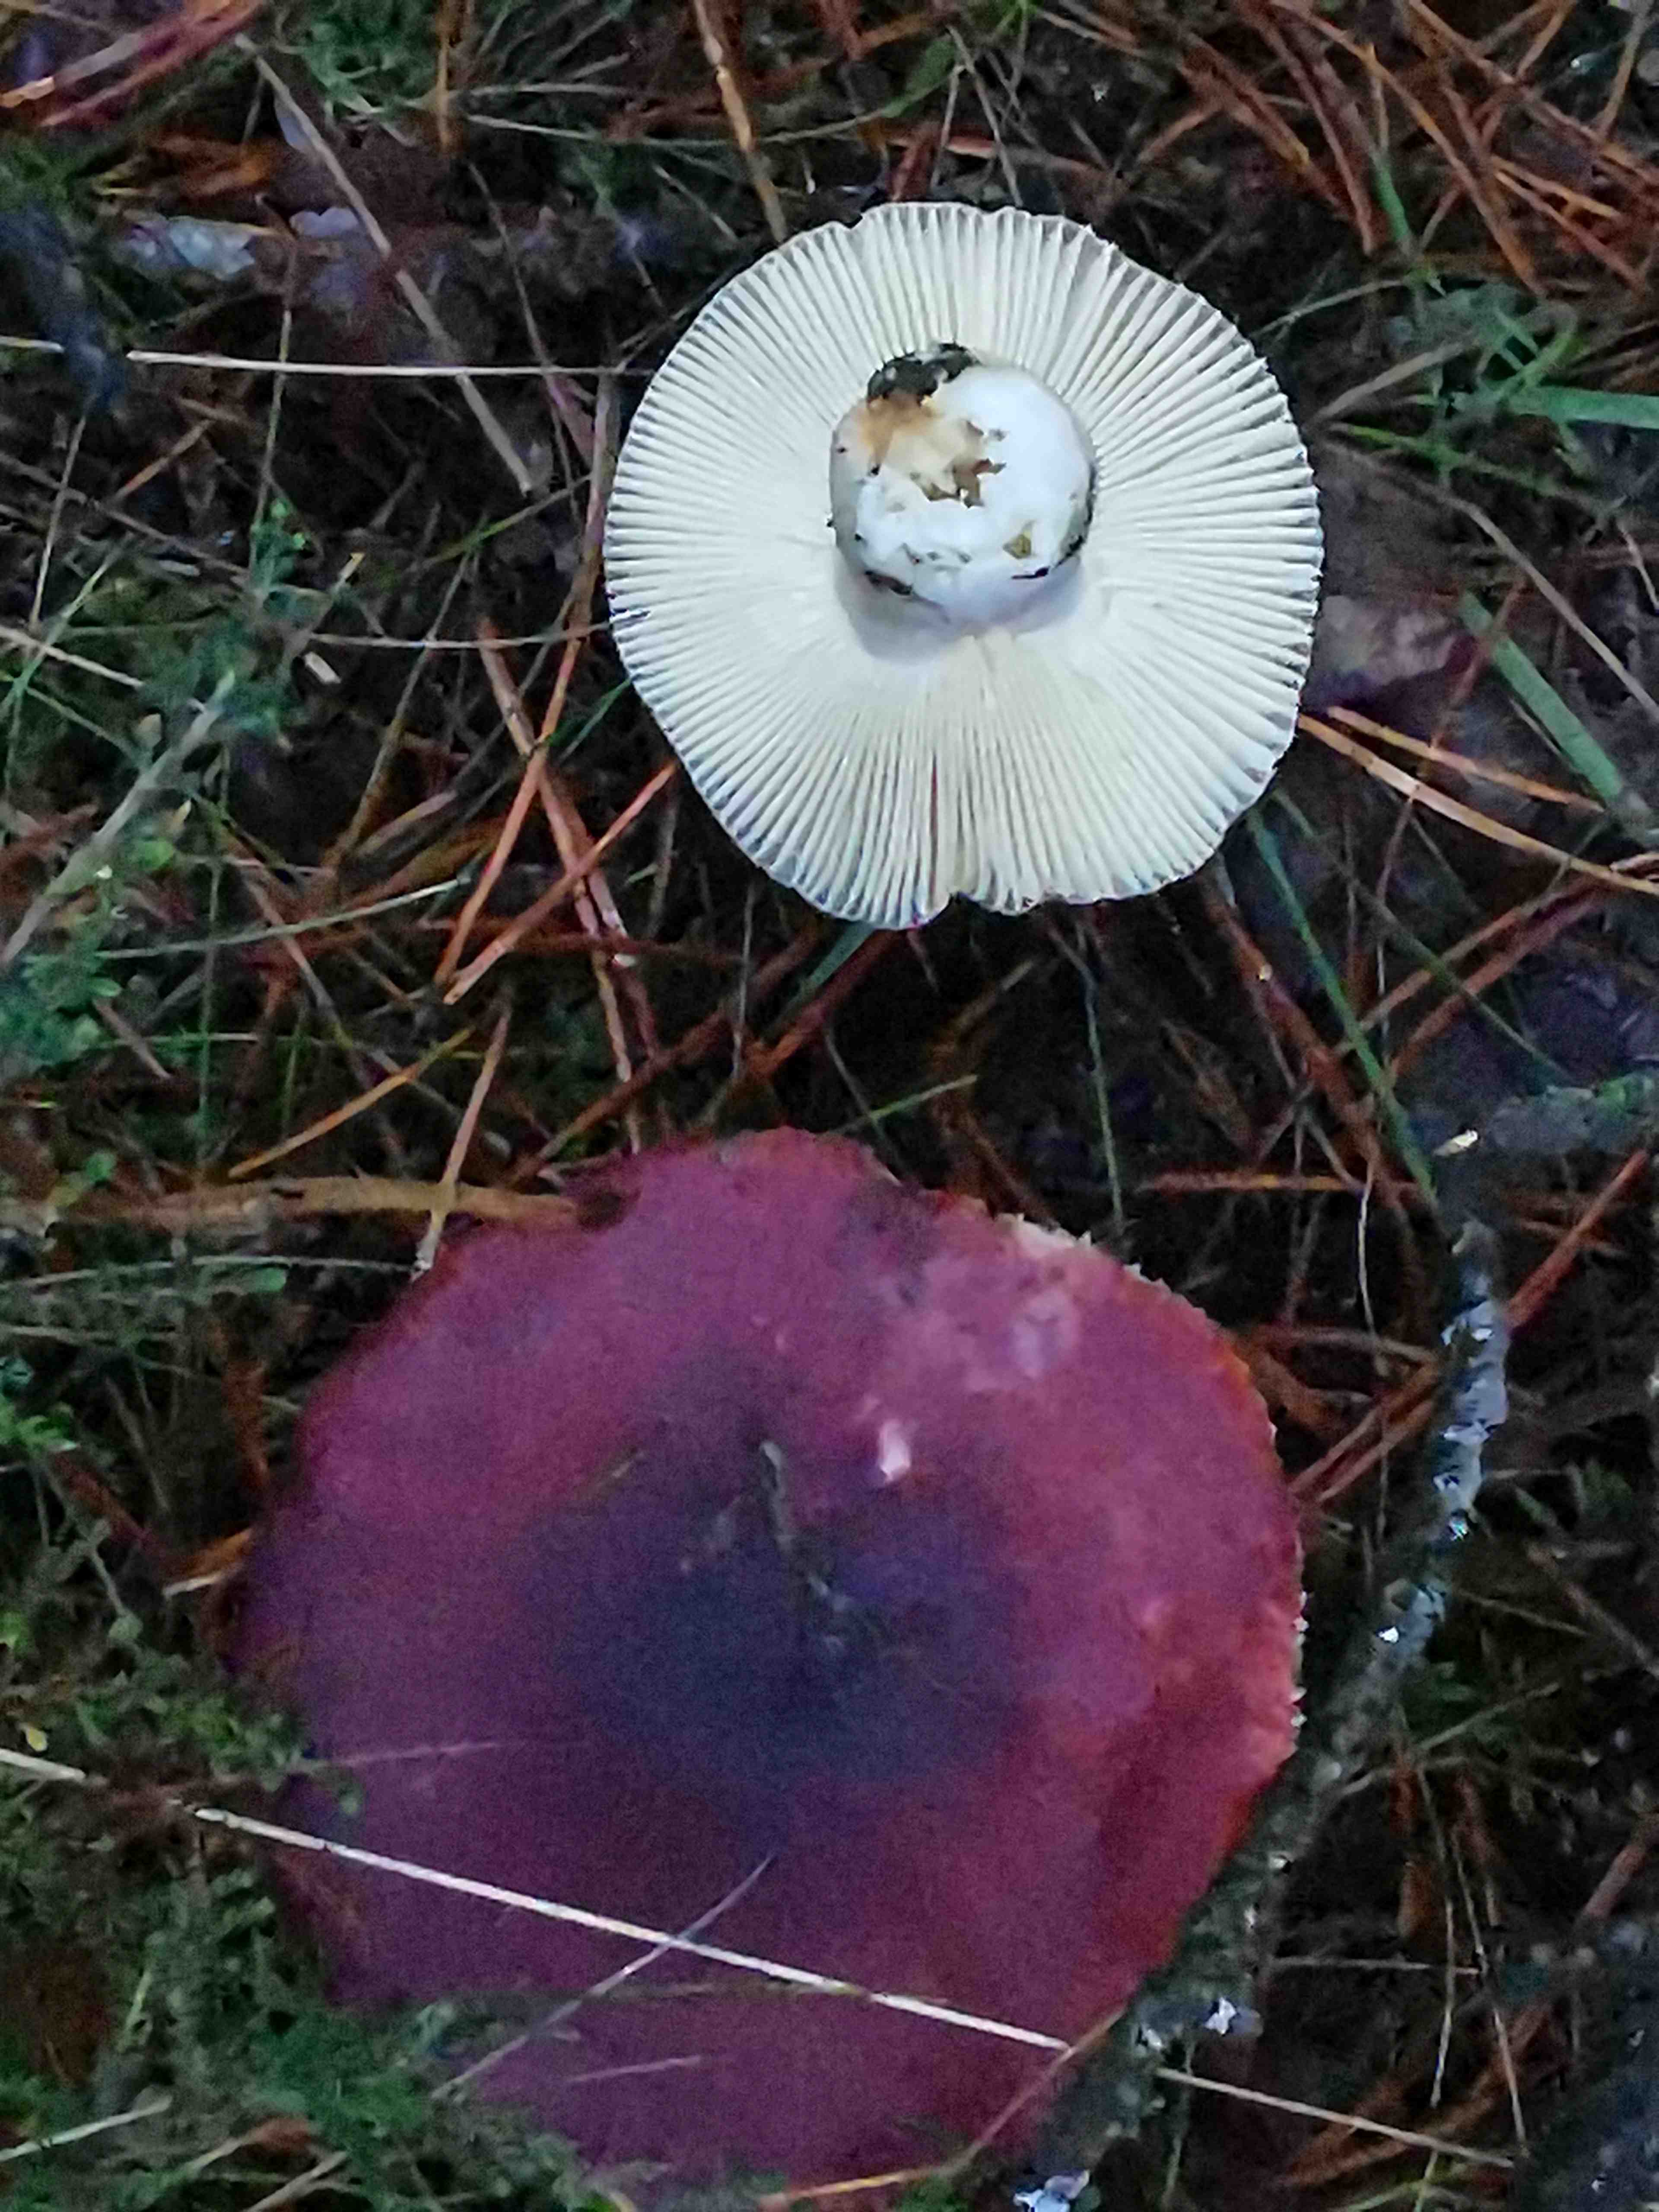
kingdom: Fungi
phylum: Basidiomycota
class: Agaricomycetes
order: Russulales
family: Russulaceae
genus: Russula
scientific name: Russula sardonia
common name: citronbladet skørhat
